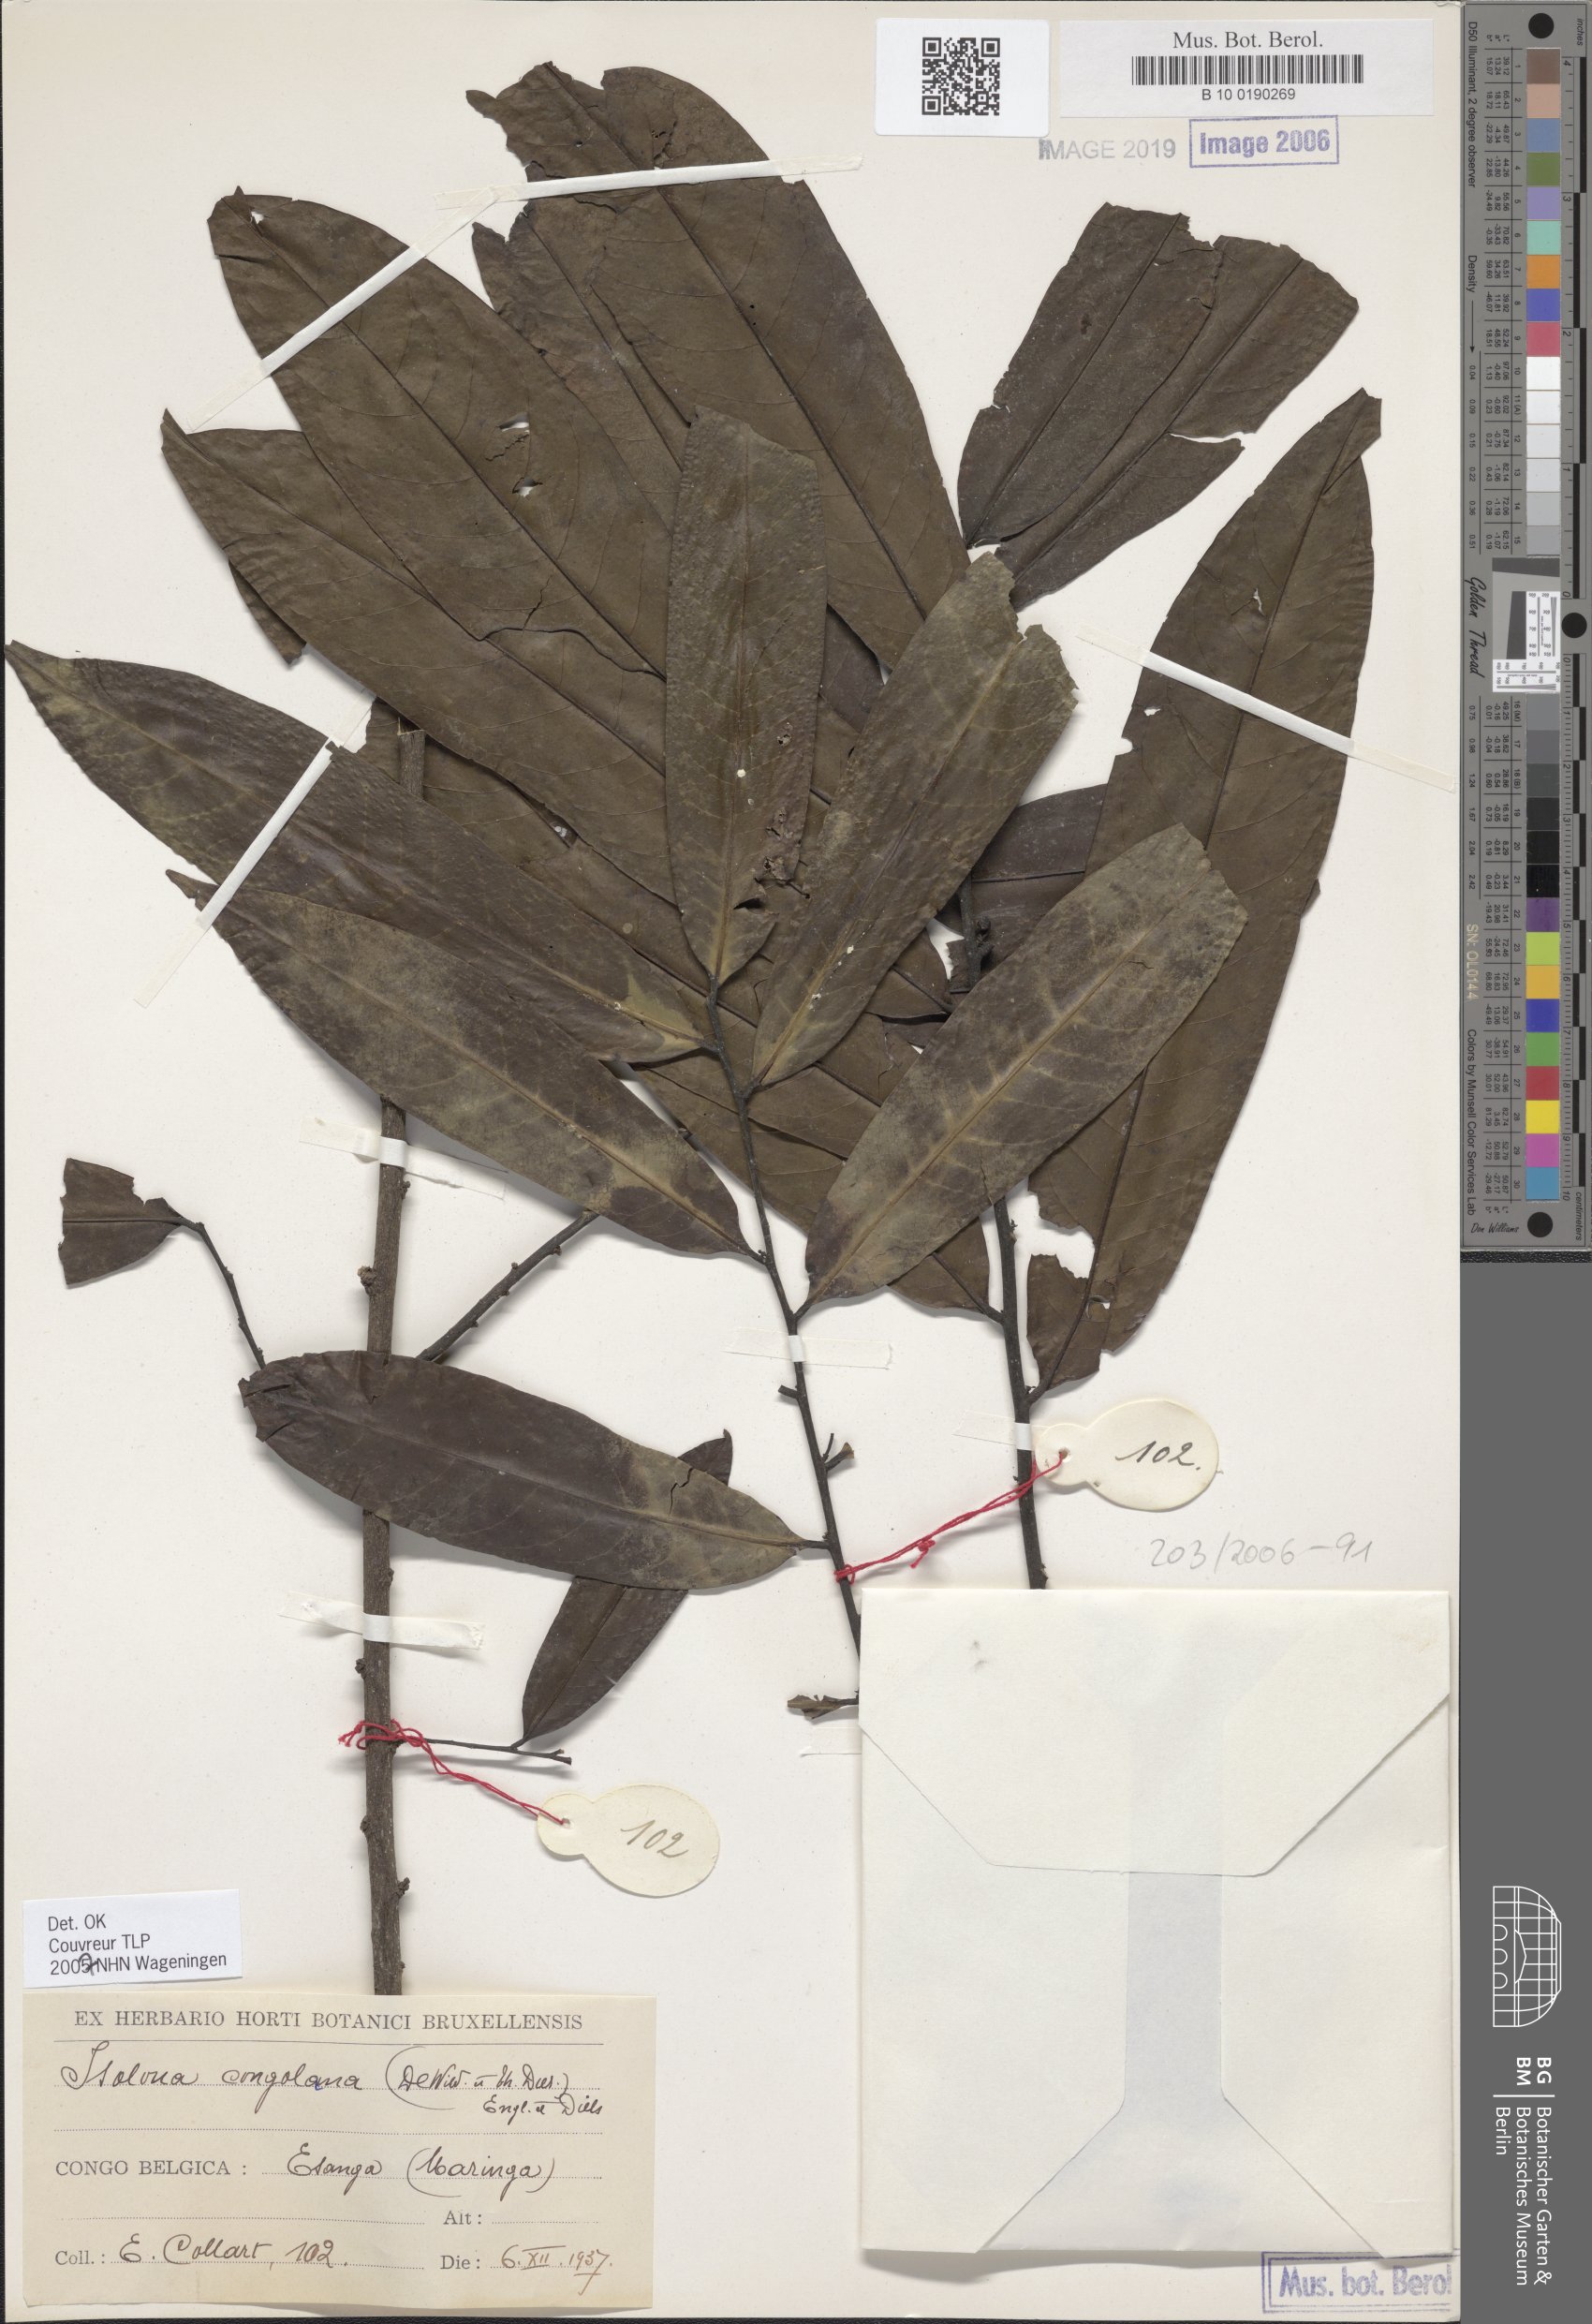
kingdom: Plantae
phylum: Tracheophyta
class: Magnoliopsida
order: Magnoliales
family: Annonaceae
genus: Isolona
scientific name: Isolona congolana
